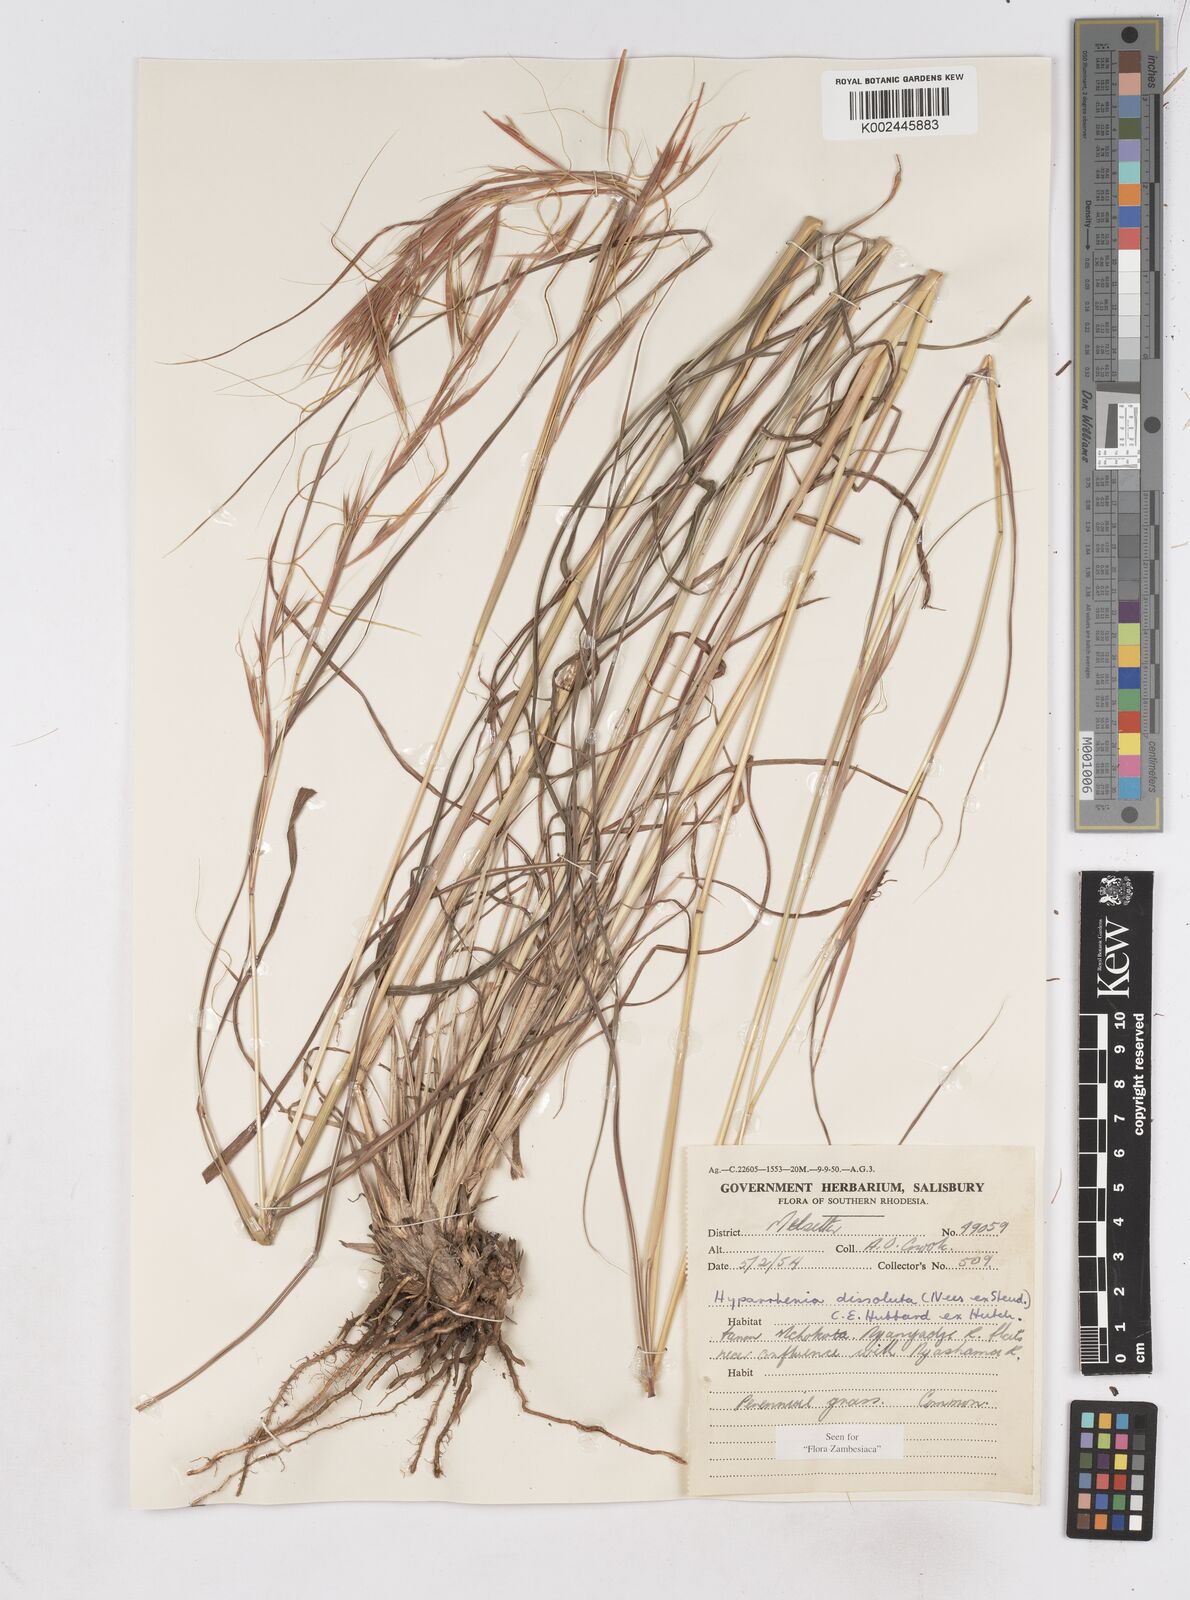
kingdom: Plantae
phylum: Tracheophyta
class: Liliopsida
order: Poales
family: Poaceae
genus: Hyperthelia
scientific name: Hyperthelia dissoluta
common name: Yellow thatching grass
